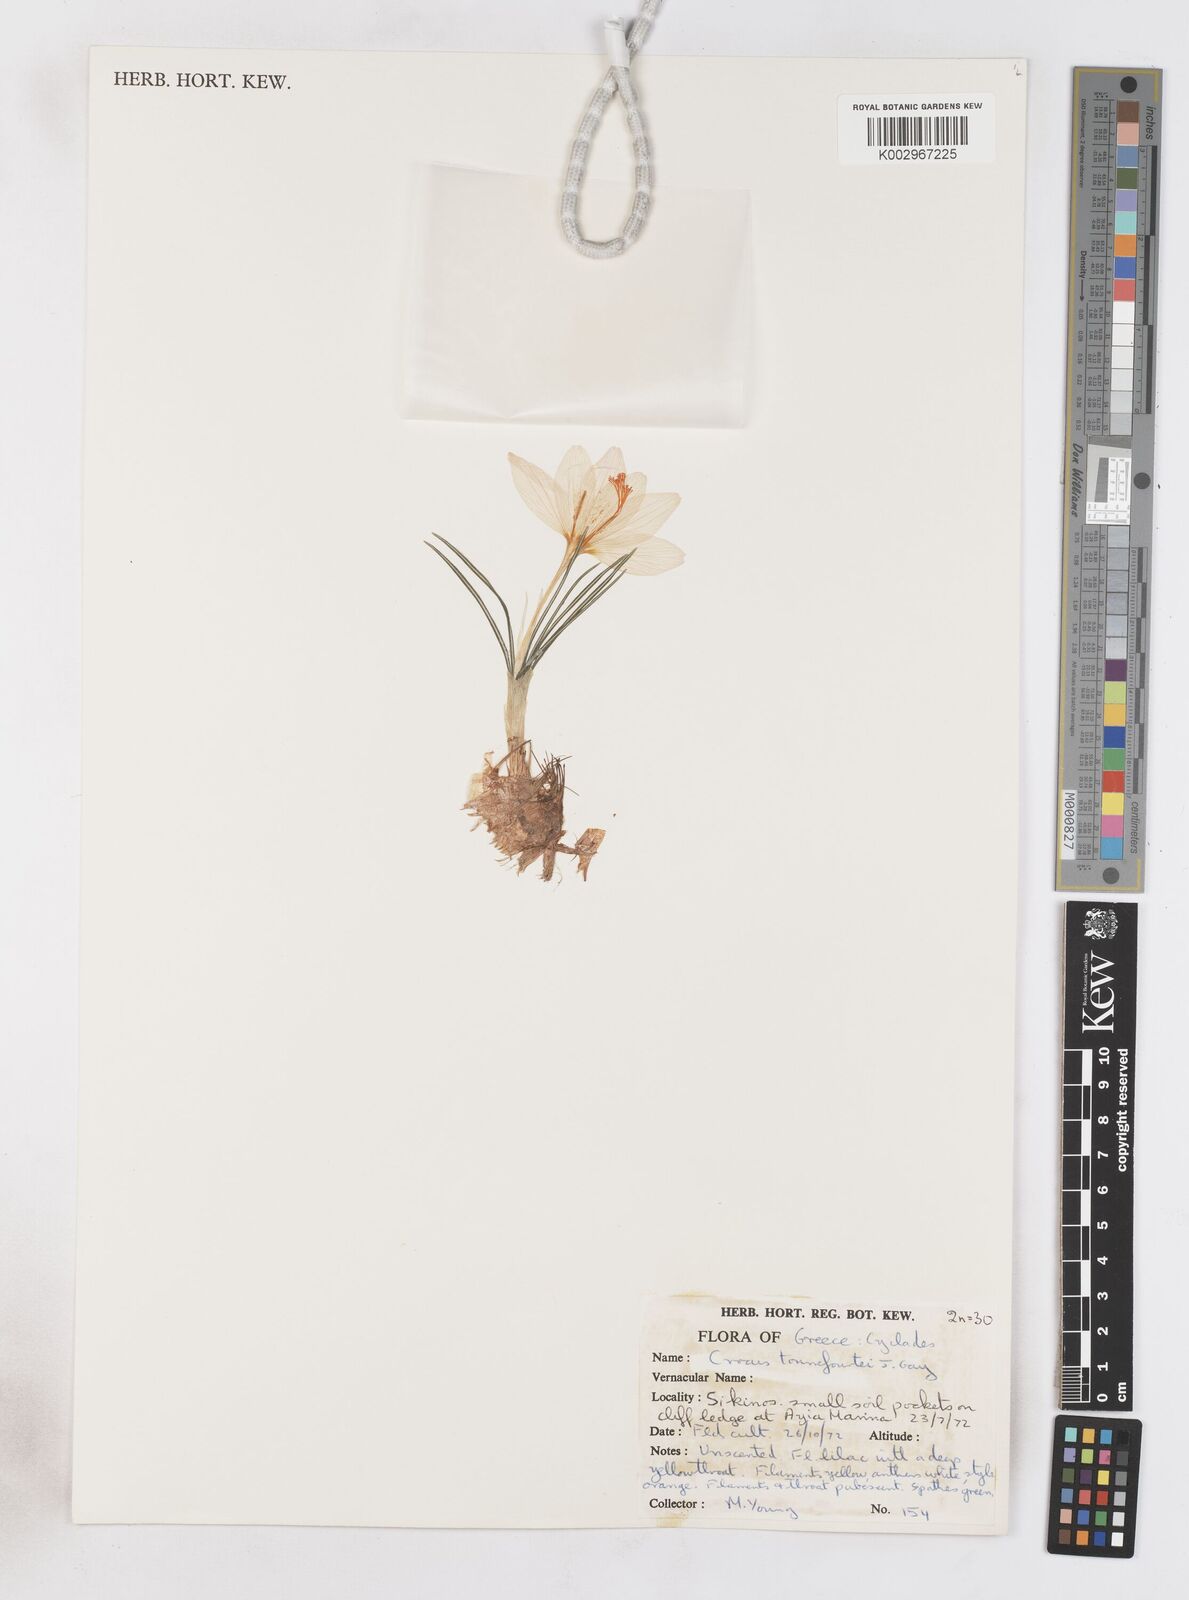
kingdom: Plantae
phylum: Tracheophyta
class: Liliopsida
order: Asparagales
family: Iridaceae
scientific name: Iridaceae
